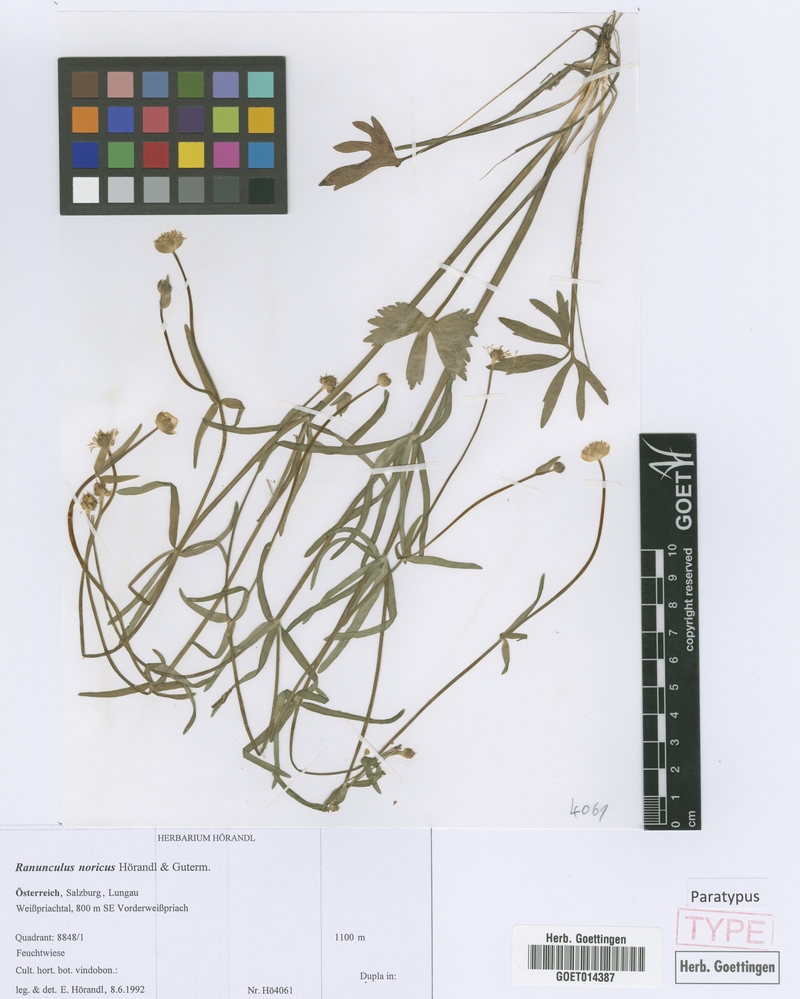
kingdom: Plantae
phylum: Tracheophyta
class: Magnoliopsida
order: Ranunculales
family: Ranunculaceae
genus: Ranunculus
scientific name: Ranunculus noricus
